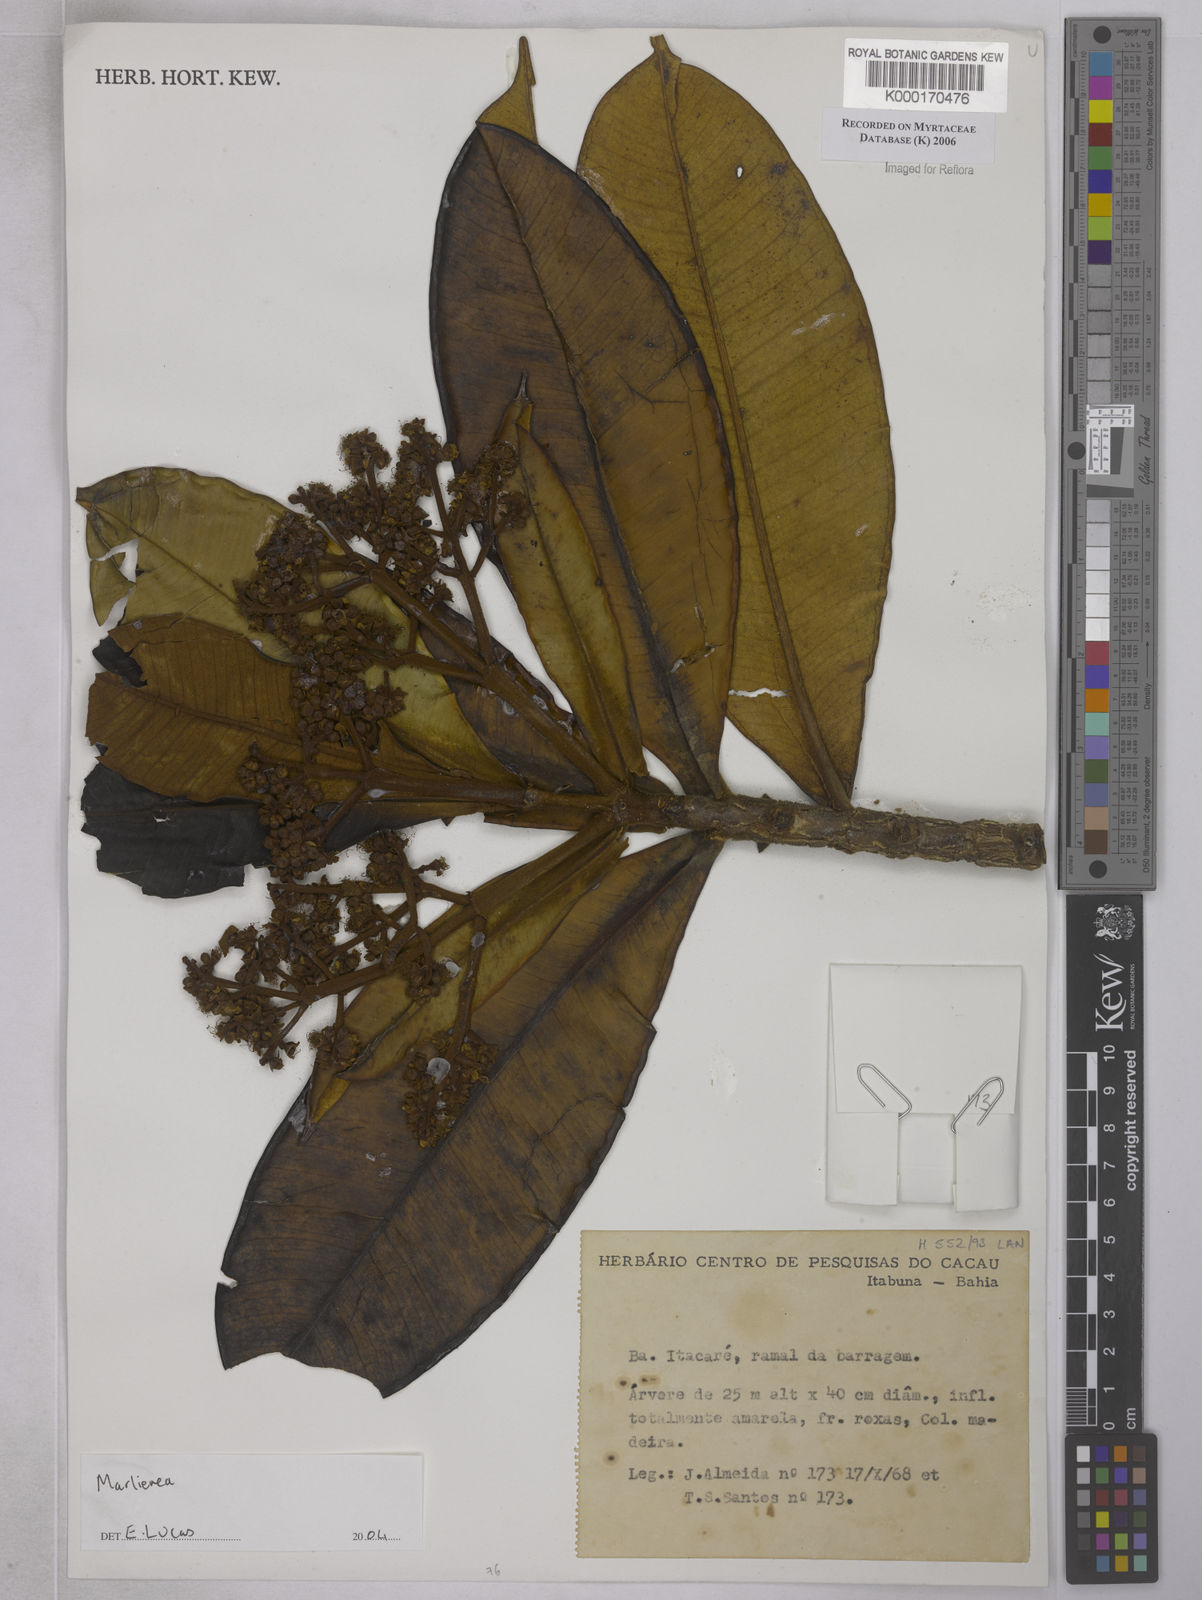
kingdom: Plantae
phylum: Tracheophyta
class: Magnoliopsida
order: Myrtales
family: Myrtaceae
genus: Marlierea
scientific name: Marlierea
